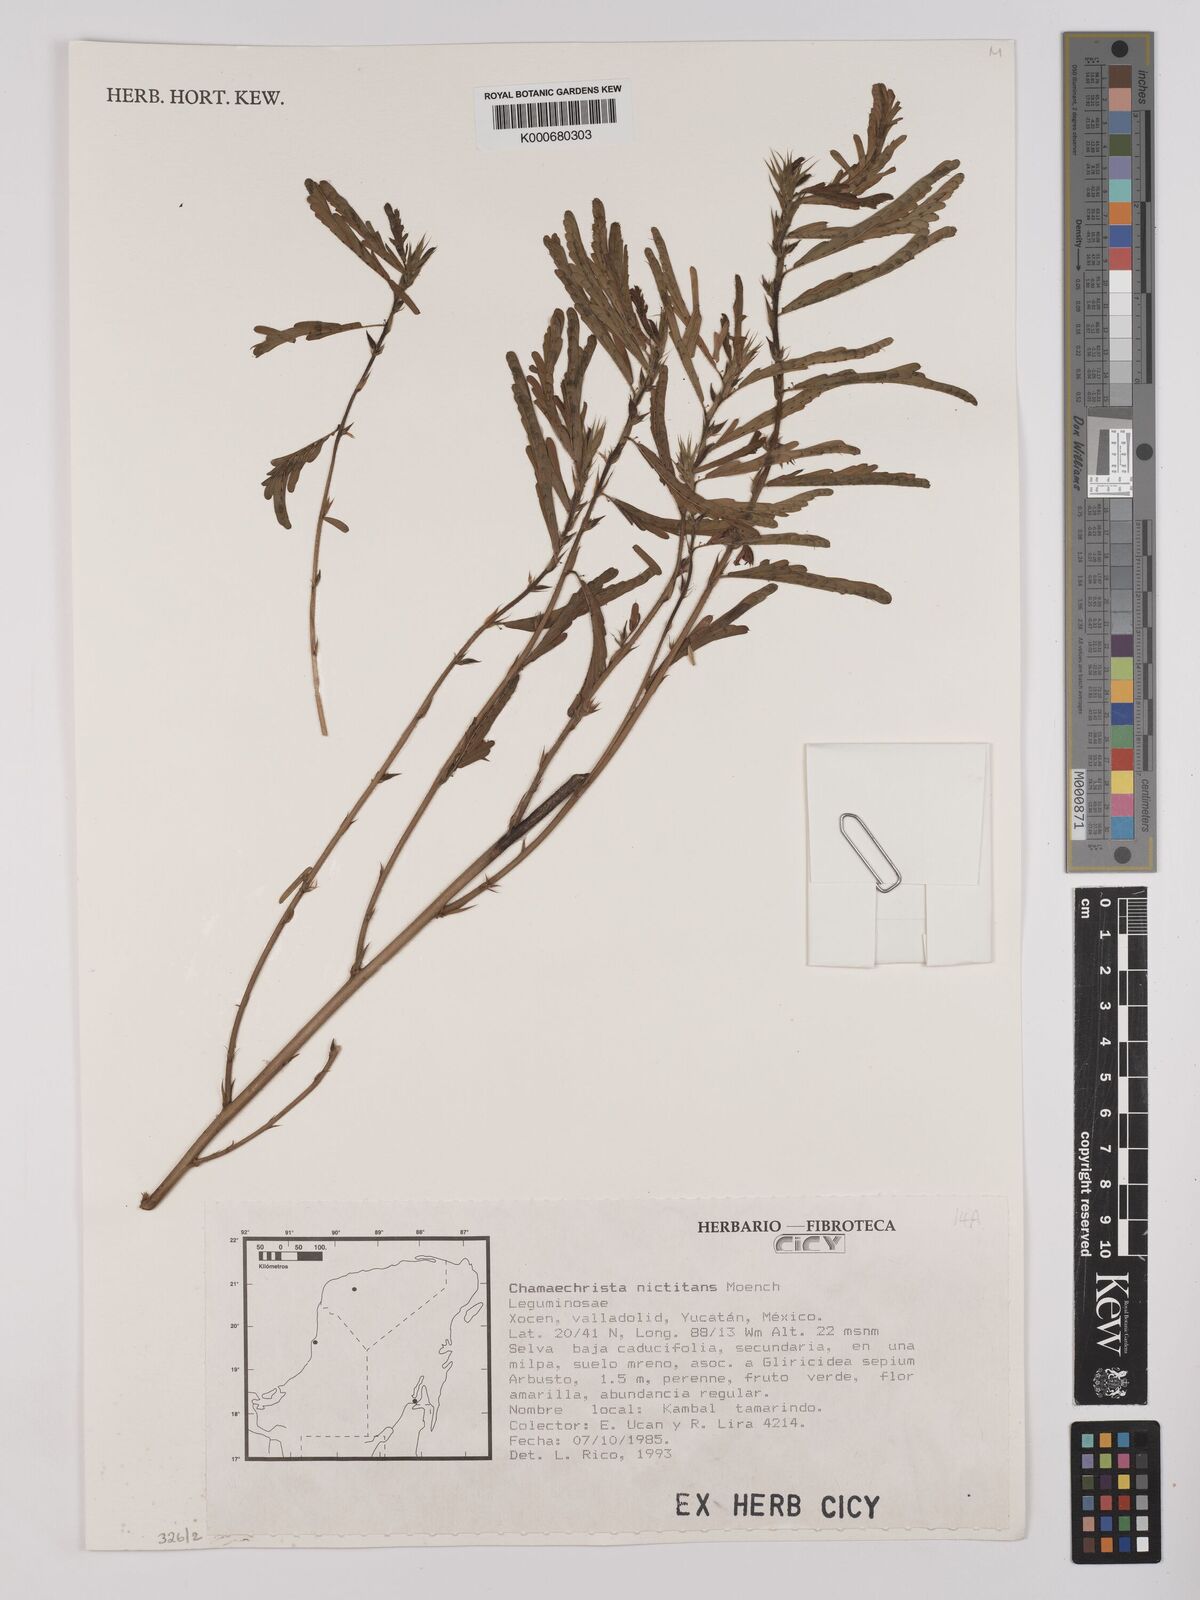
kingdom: Plantae
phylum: Tracheophyta
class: Magnoliopsida
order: Fabales
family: Fabaceae
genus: Chamaecrista
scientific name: Chamaecrista nictitans
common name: Sensitive cassia
